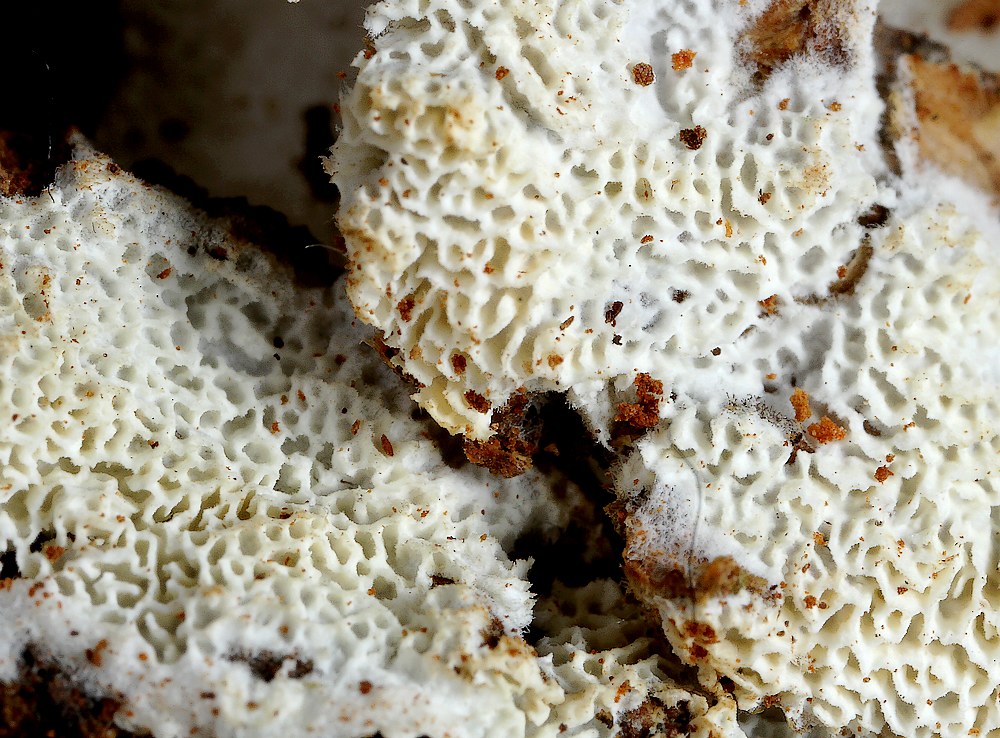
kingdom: Fungi
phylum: Basidiomycota
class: Agaricomycetes
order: Hymenochaetales
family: Schizoporaceae
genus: Xylodon
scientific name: Xylodon subtropicus
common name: labyrint-tandsvamp
